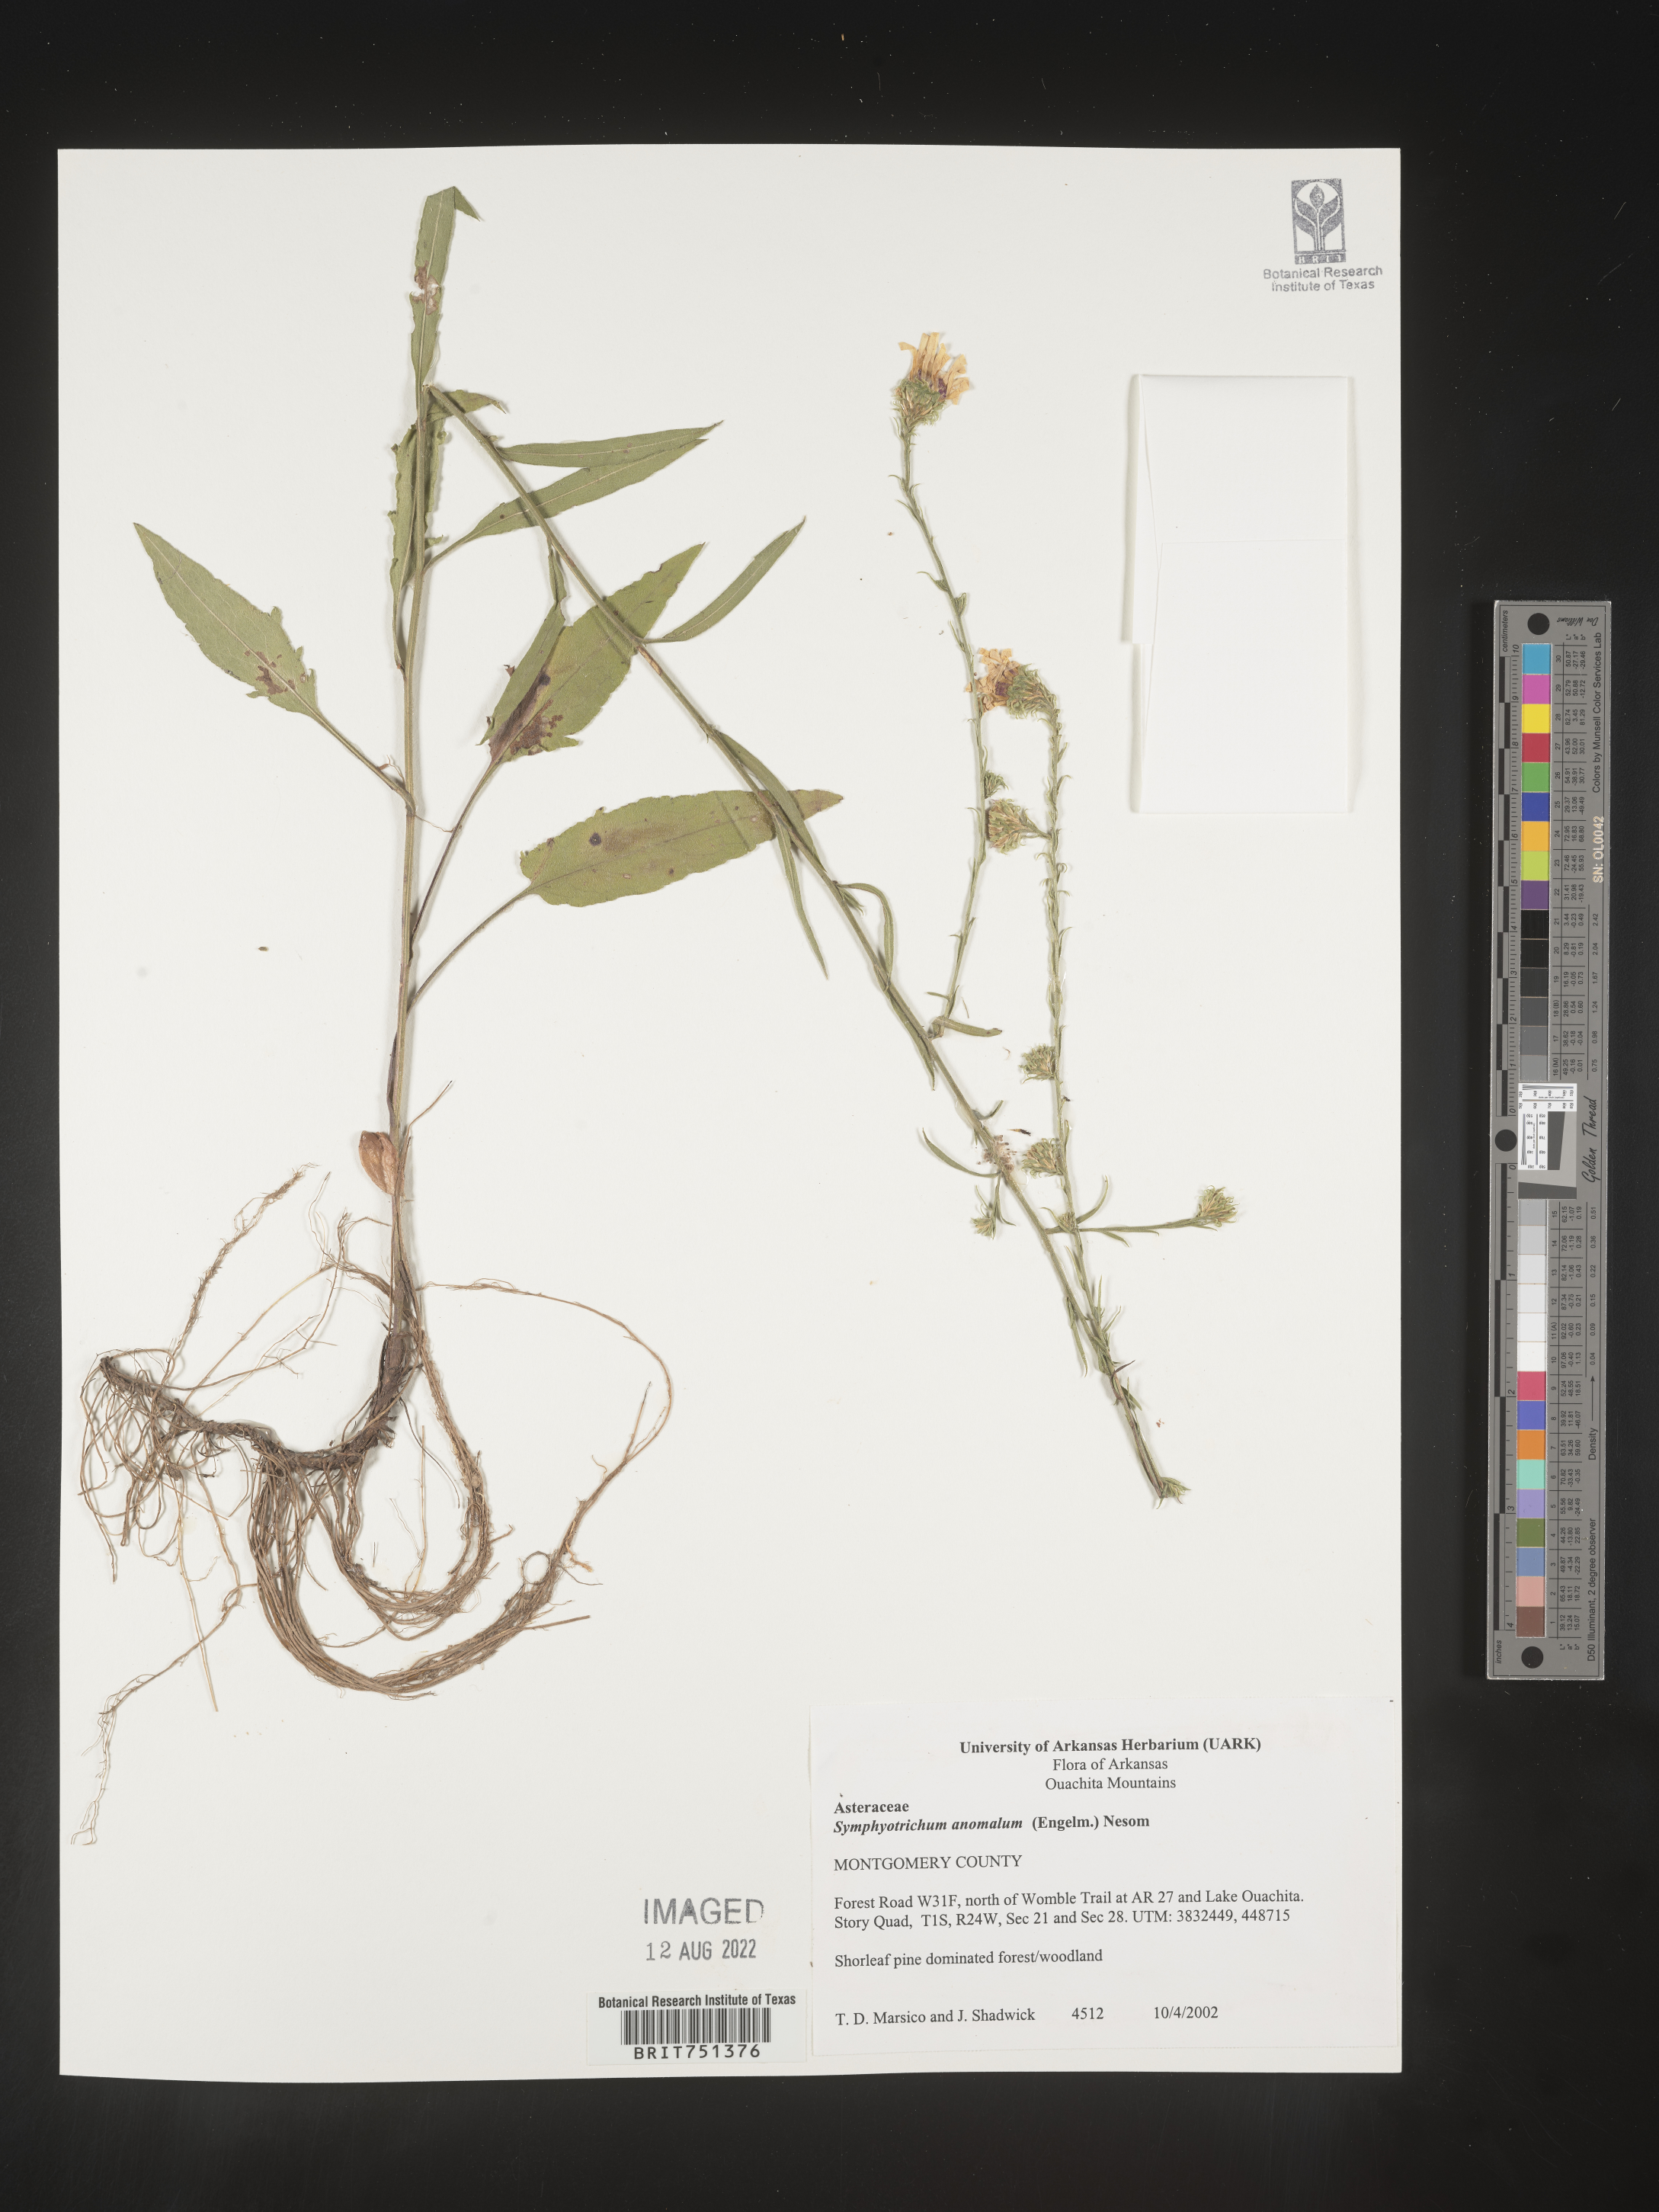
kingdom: Plantae
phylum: Tracheophyta
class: Magnoliopsida
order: Asterales
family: Asteraceae
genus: Symphyotrichum
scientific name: Symphyotrichum anomalum
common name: Many-ray aster
